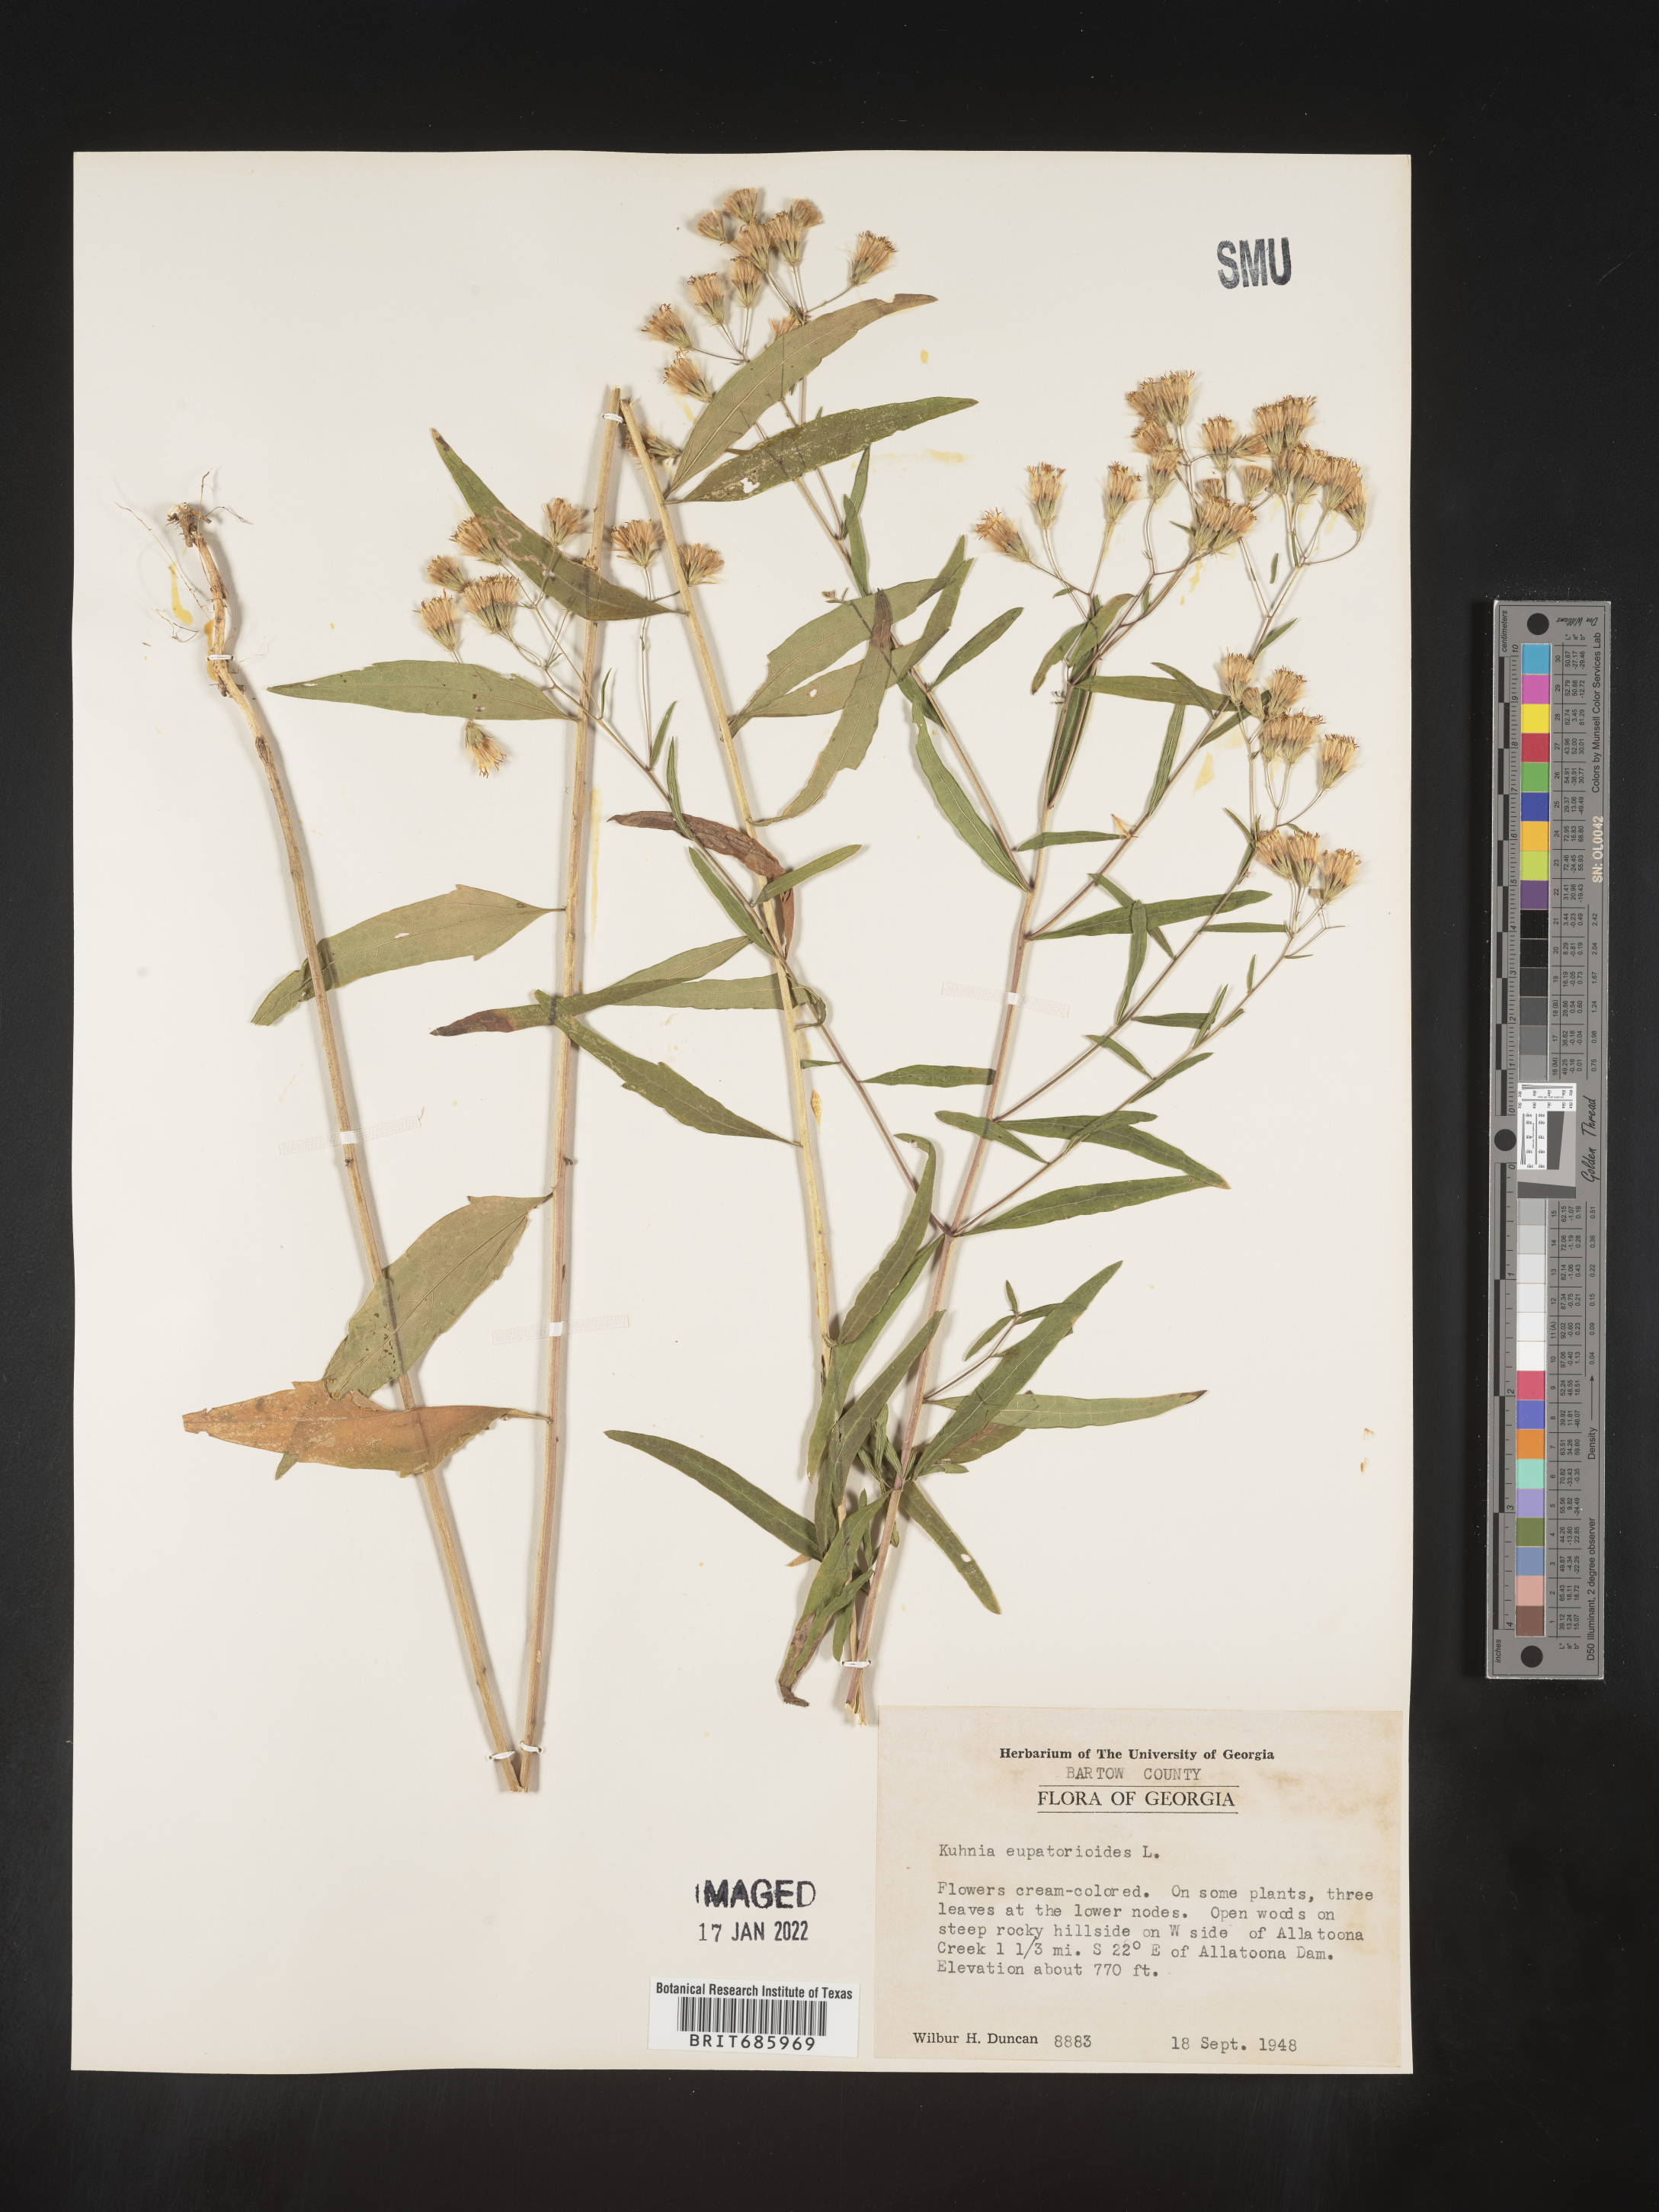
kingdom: Plantae
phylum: Tracheophyta
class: Magnoliopsida
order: Asterales
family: Asteraceae
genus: Brickellia
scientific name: Brickellia eupatorioides
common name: False boneset
